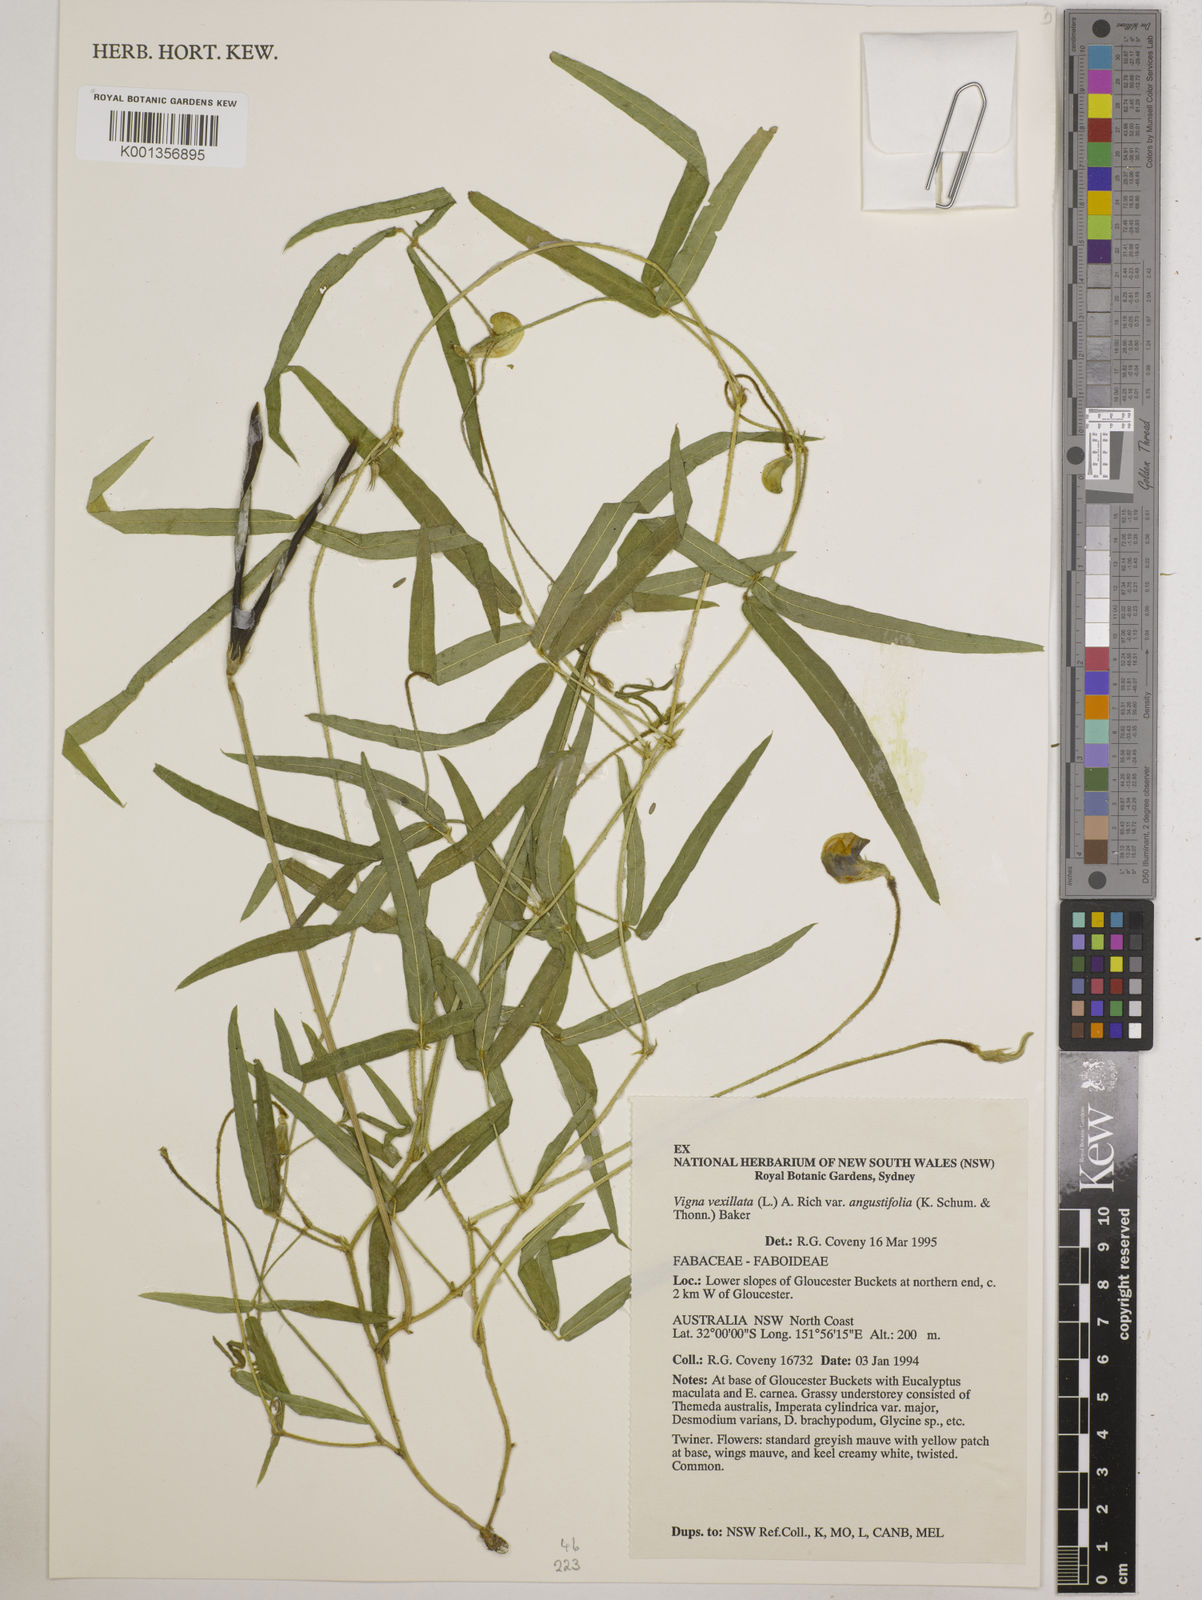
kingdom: Plantae
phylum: Tracheophyta
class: Magnoliopsida
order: Fabales
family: Fabaceae
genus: Vigna
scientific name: Vigna vexillata
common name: Zombi pea
